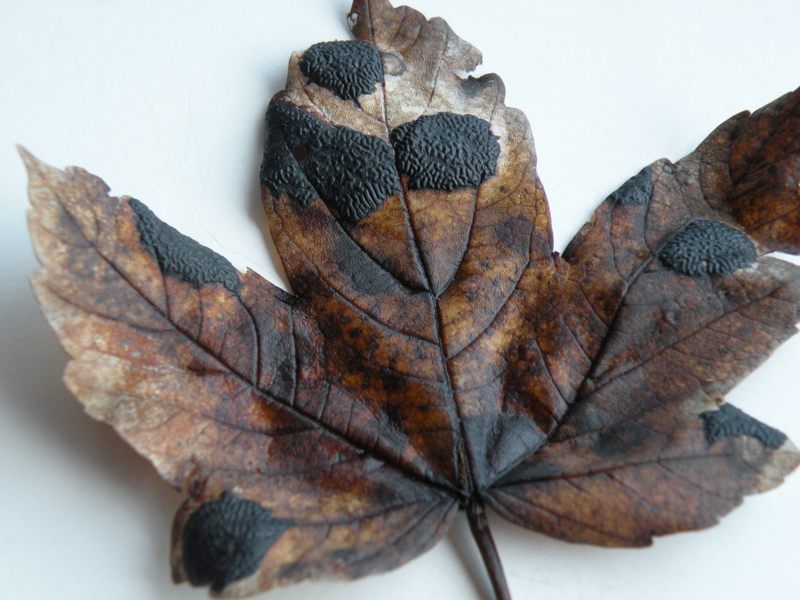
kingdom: Fungi
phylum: Ascomycota
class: Leotiomycetes
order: Rhytismatales
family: Rhytismataceae
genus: Rhytisma
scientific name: Rhytisma acerinum
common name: ahorn-rynkeplet
